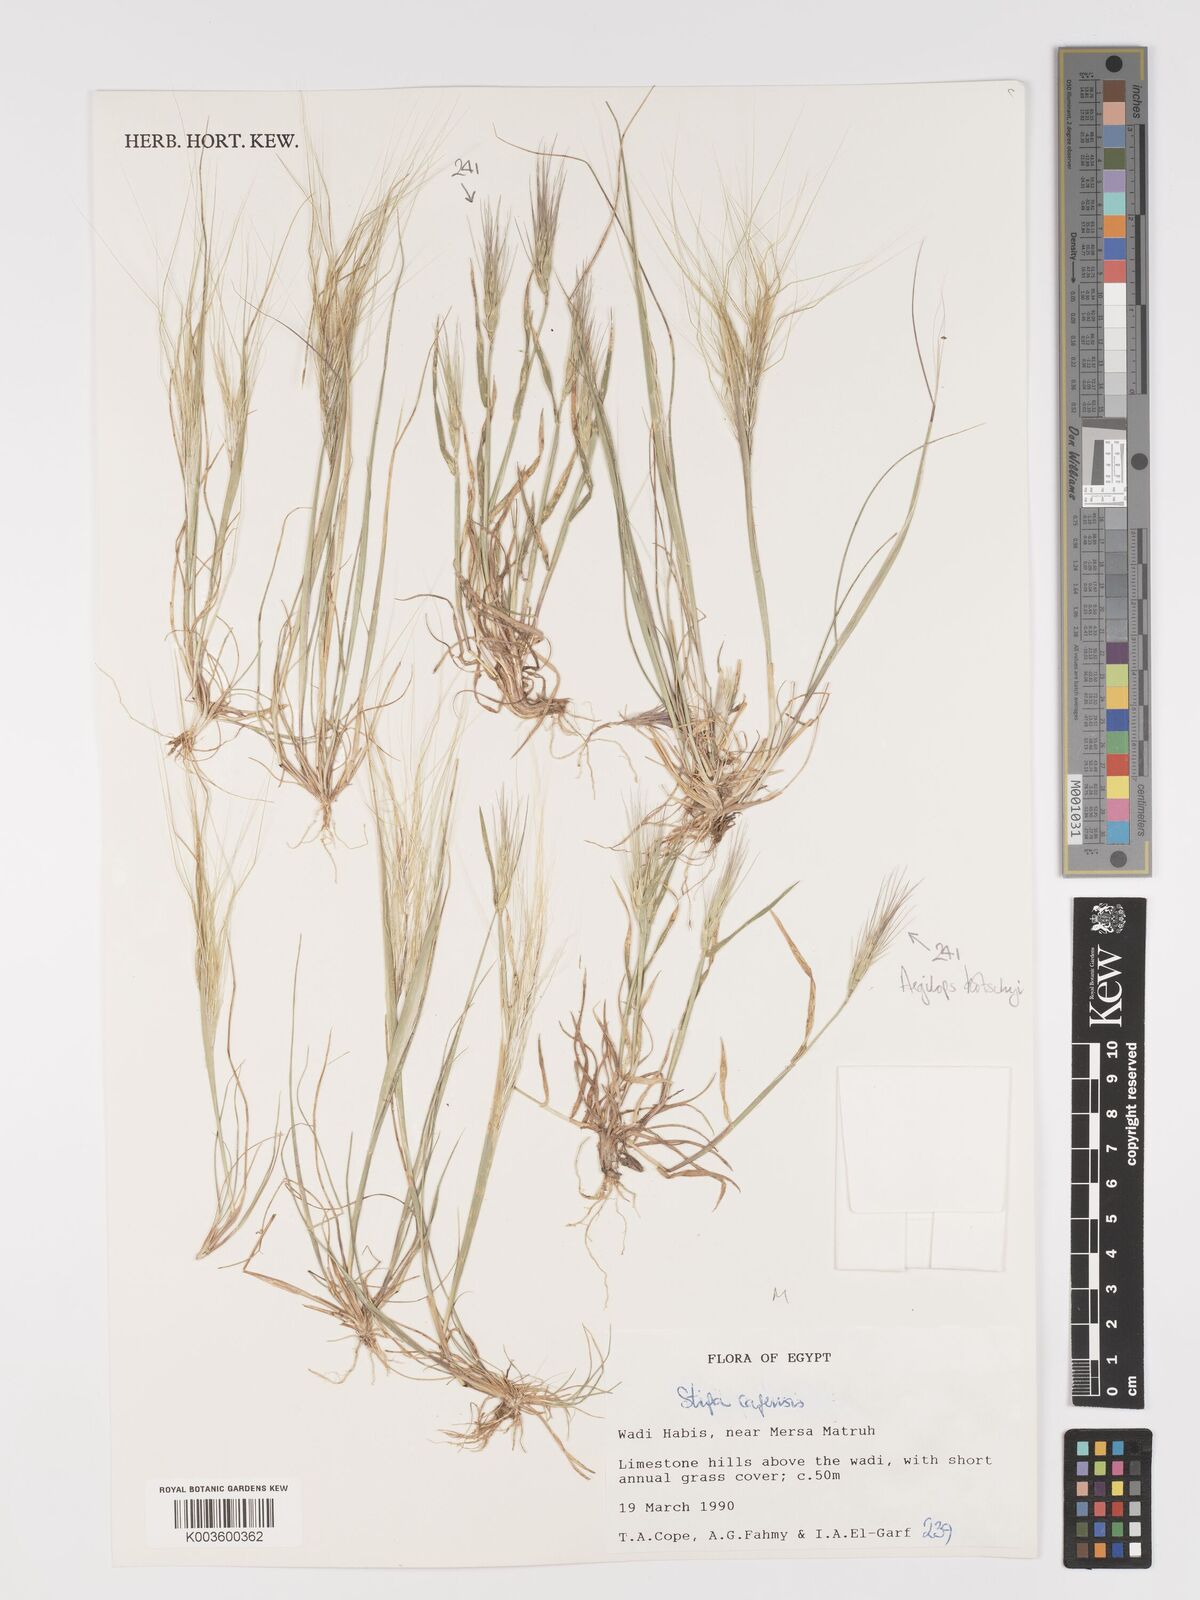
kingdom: Plantae
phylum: Tracheophyta
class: Liliopsida
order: Poales
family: Poaceae
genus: Stipellula
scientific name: Stipellula capensis
